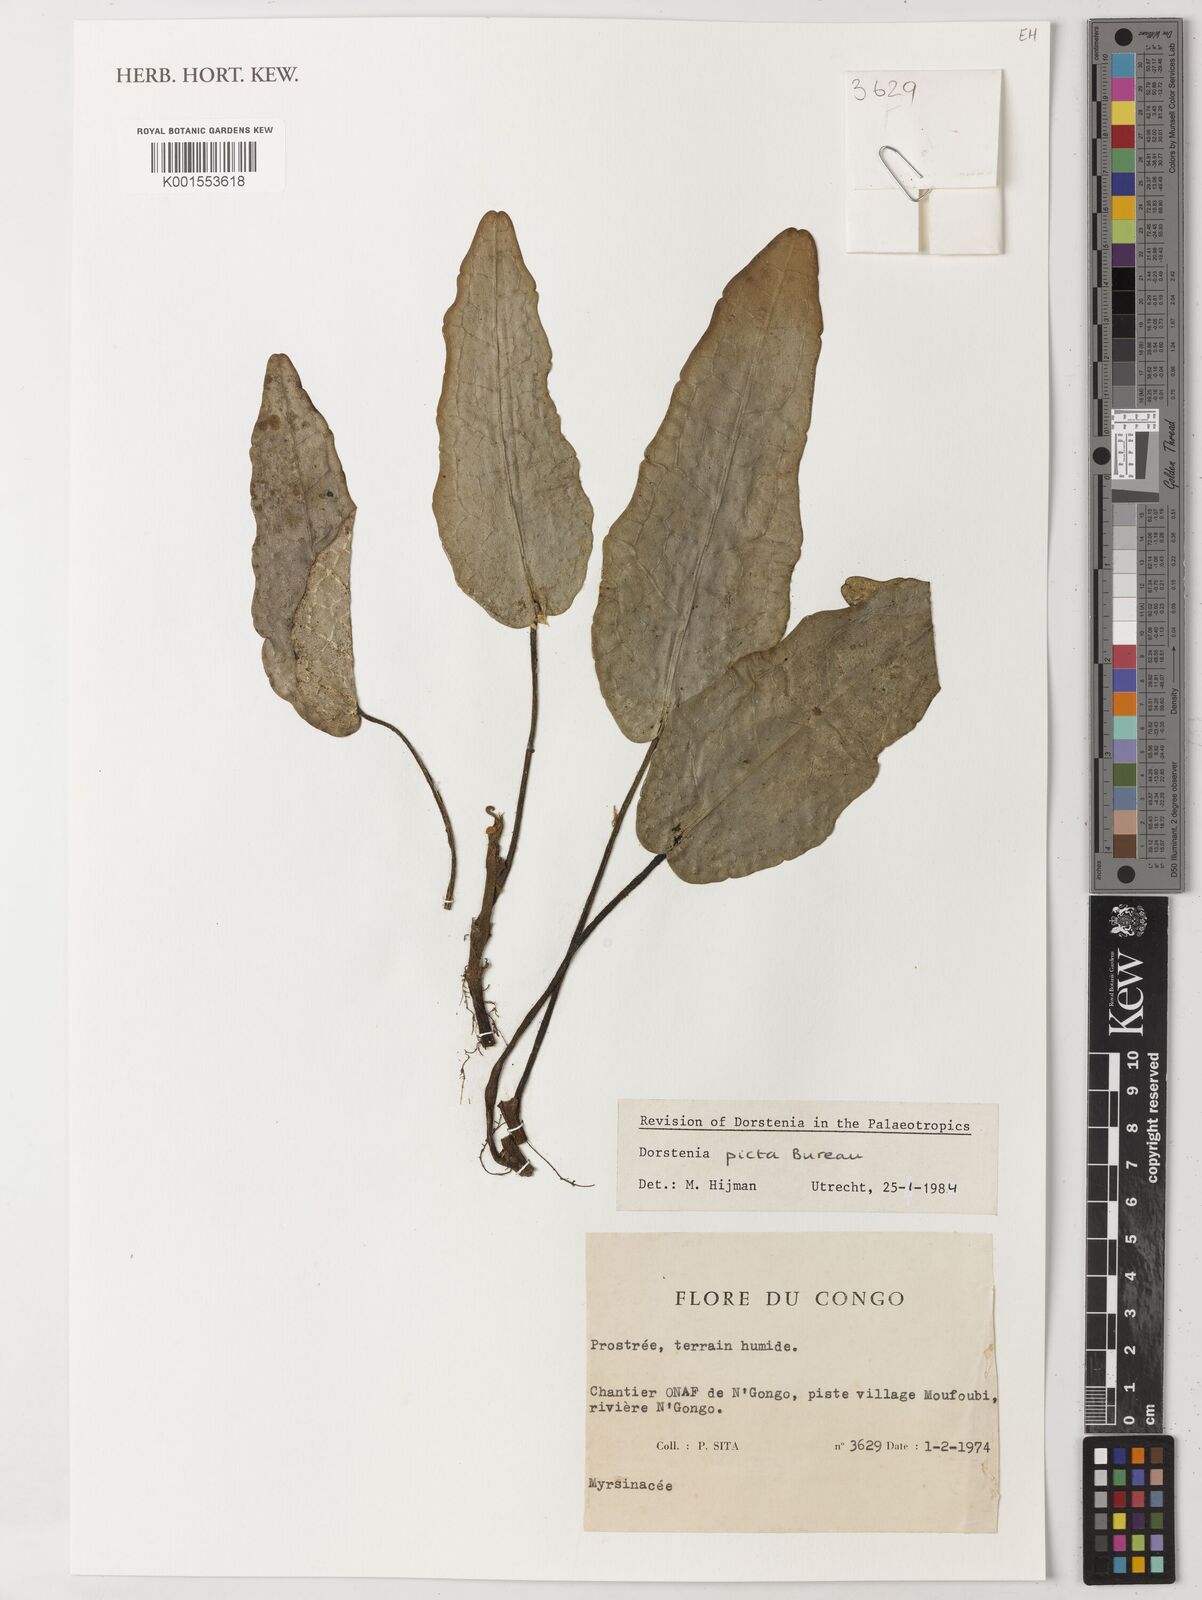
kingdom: Plantae
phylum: Tracheophyta
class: Magnoliopsida
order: Rosales
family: Moraceae
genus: Dorstenia
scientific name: Dorstenia picta
